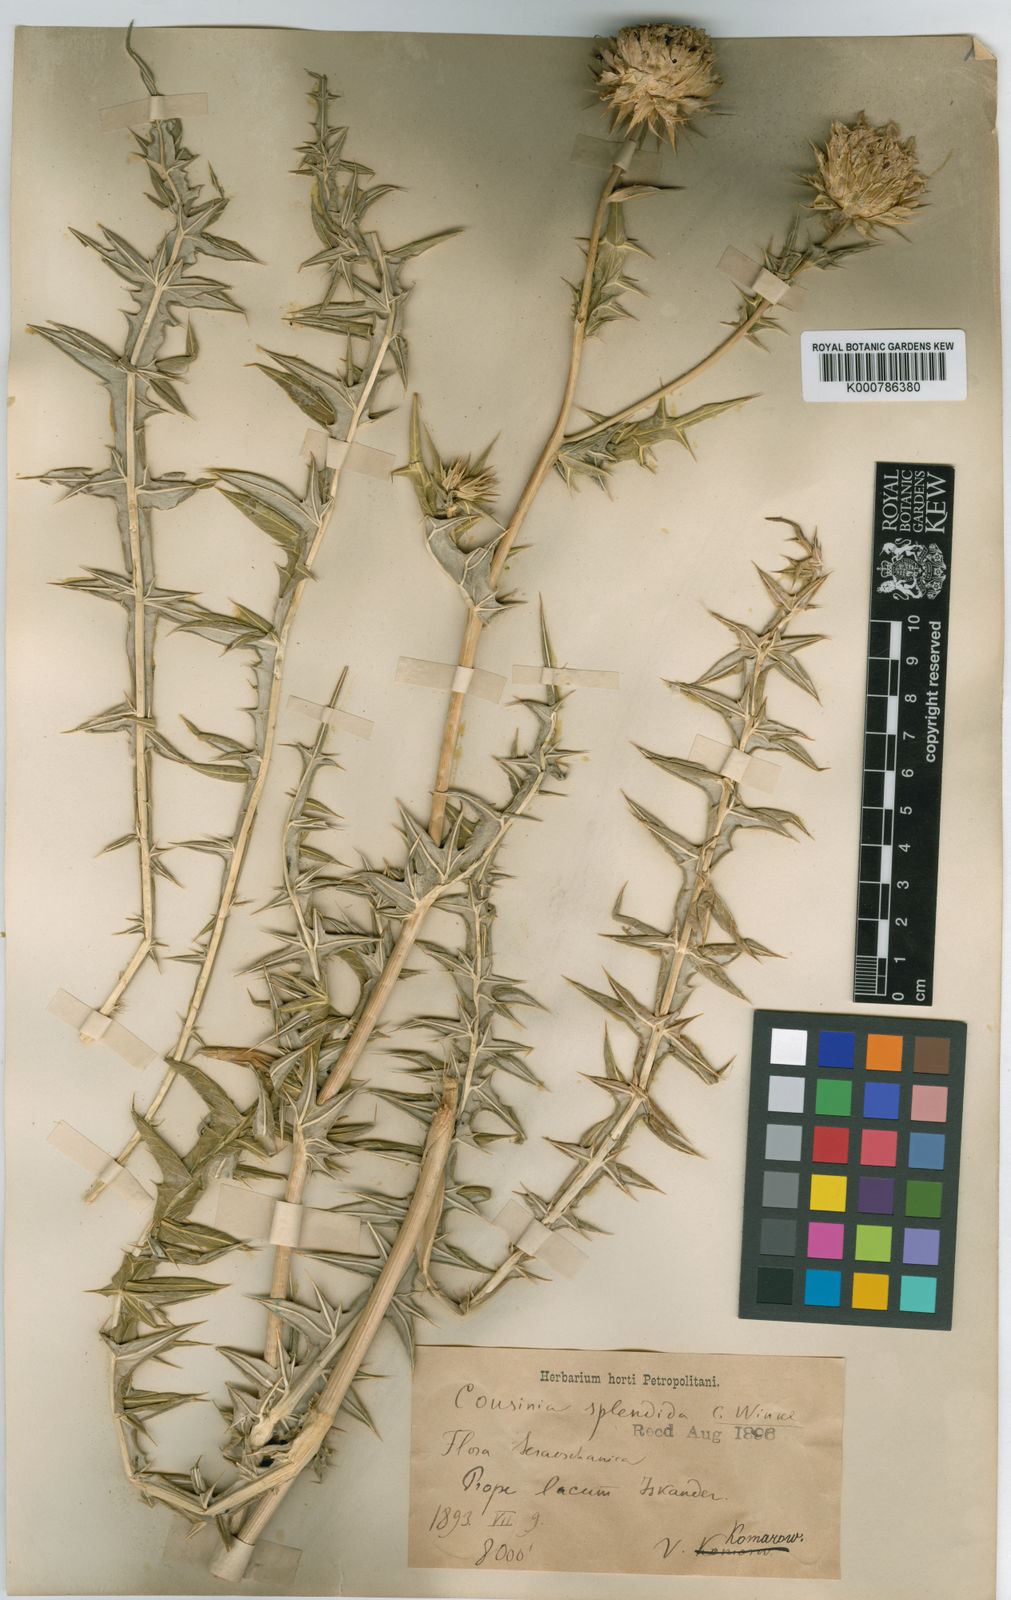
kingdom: Plantae
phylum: Tracheophyta
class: Magnoliopsida
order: Asterales
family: Asteraceae
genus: Cousinia
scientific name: Cousinia splendida
